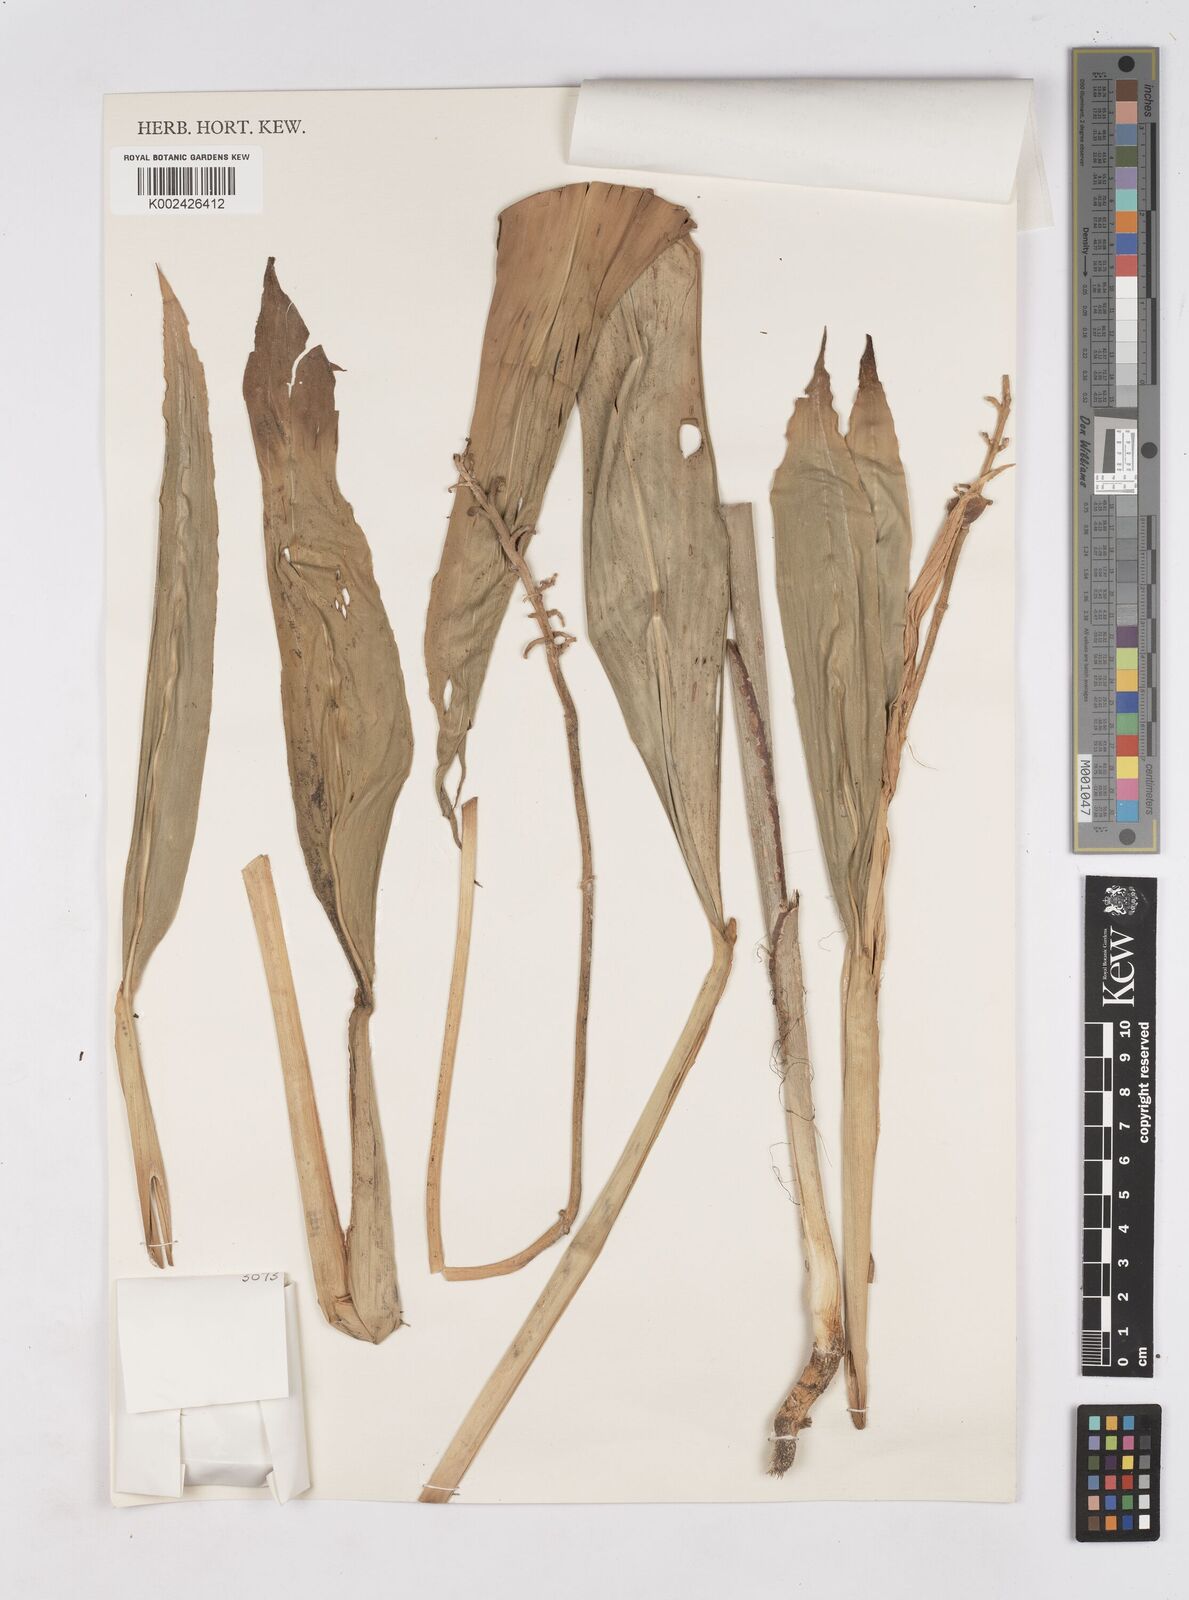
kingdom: Plantae
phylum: Tracheophyta
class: Liliopsida
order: Zingiberales
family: Zingiberaceae
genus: Riedelia
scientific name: Riedelia
